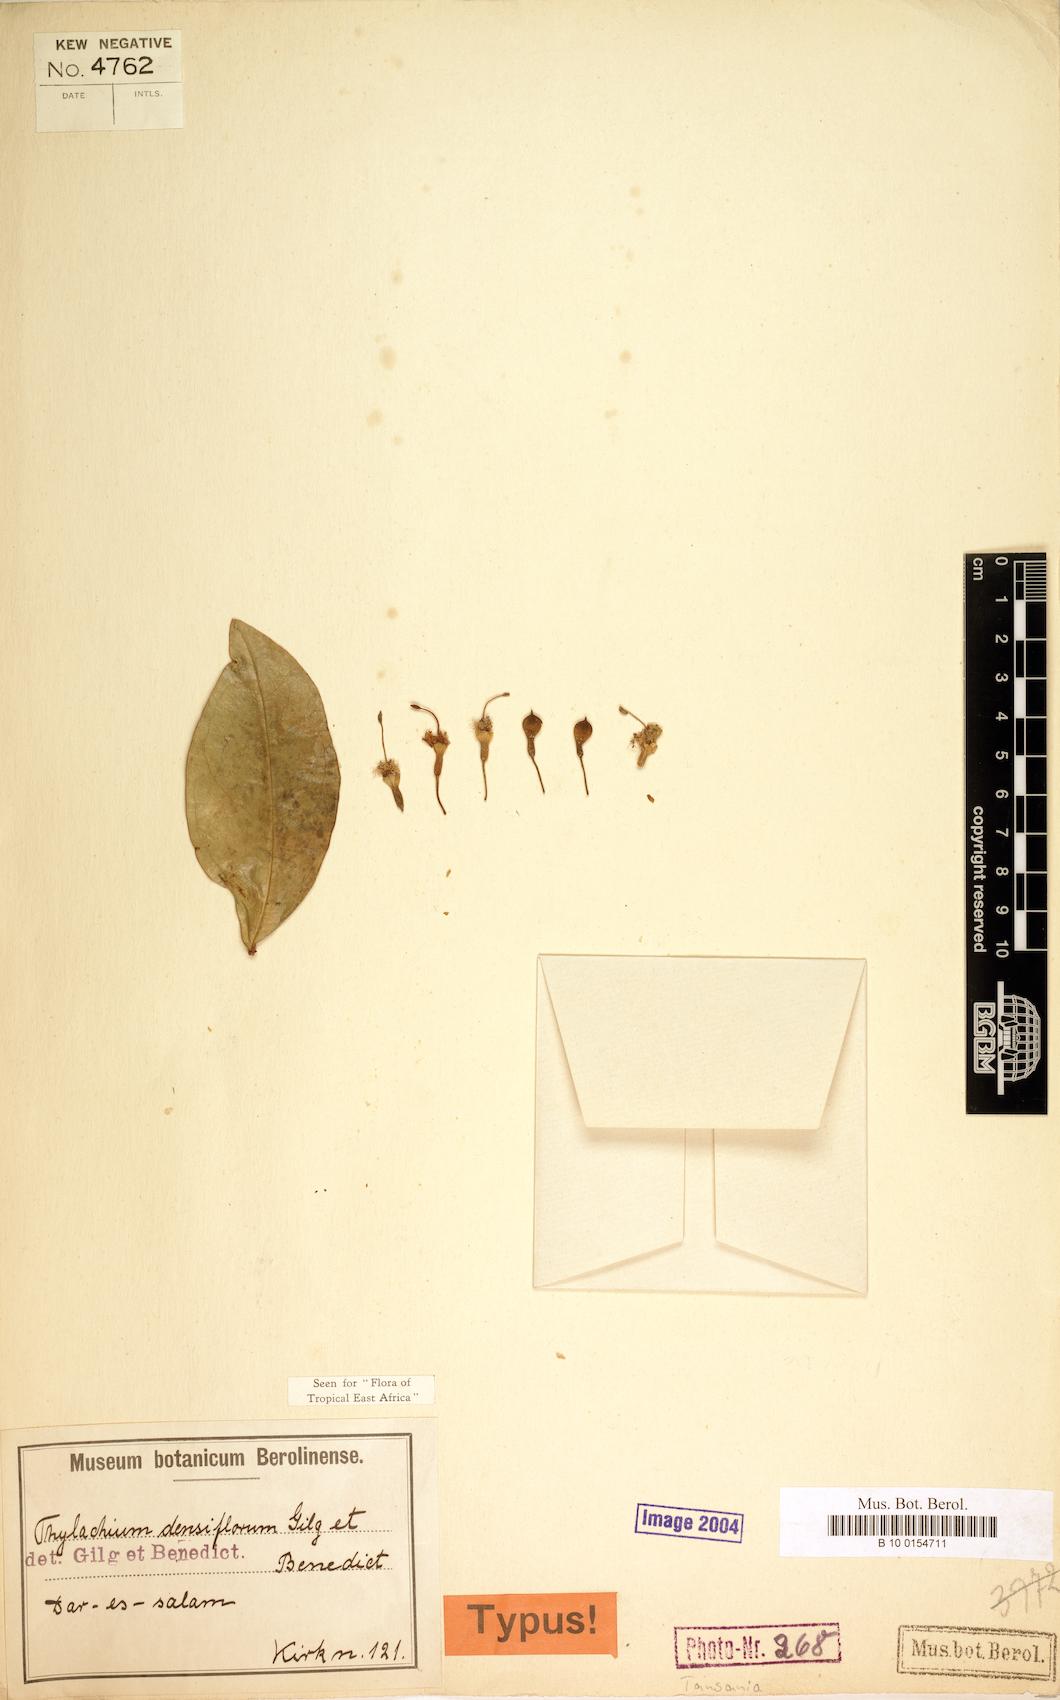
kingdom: Plantae
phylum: Tracheophyta
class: Magnoliopsida
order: Brassicales
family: Capparaceae
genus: Thilachium
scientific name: Thilachium densiflorum
